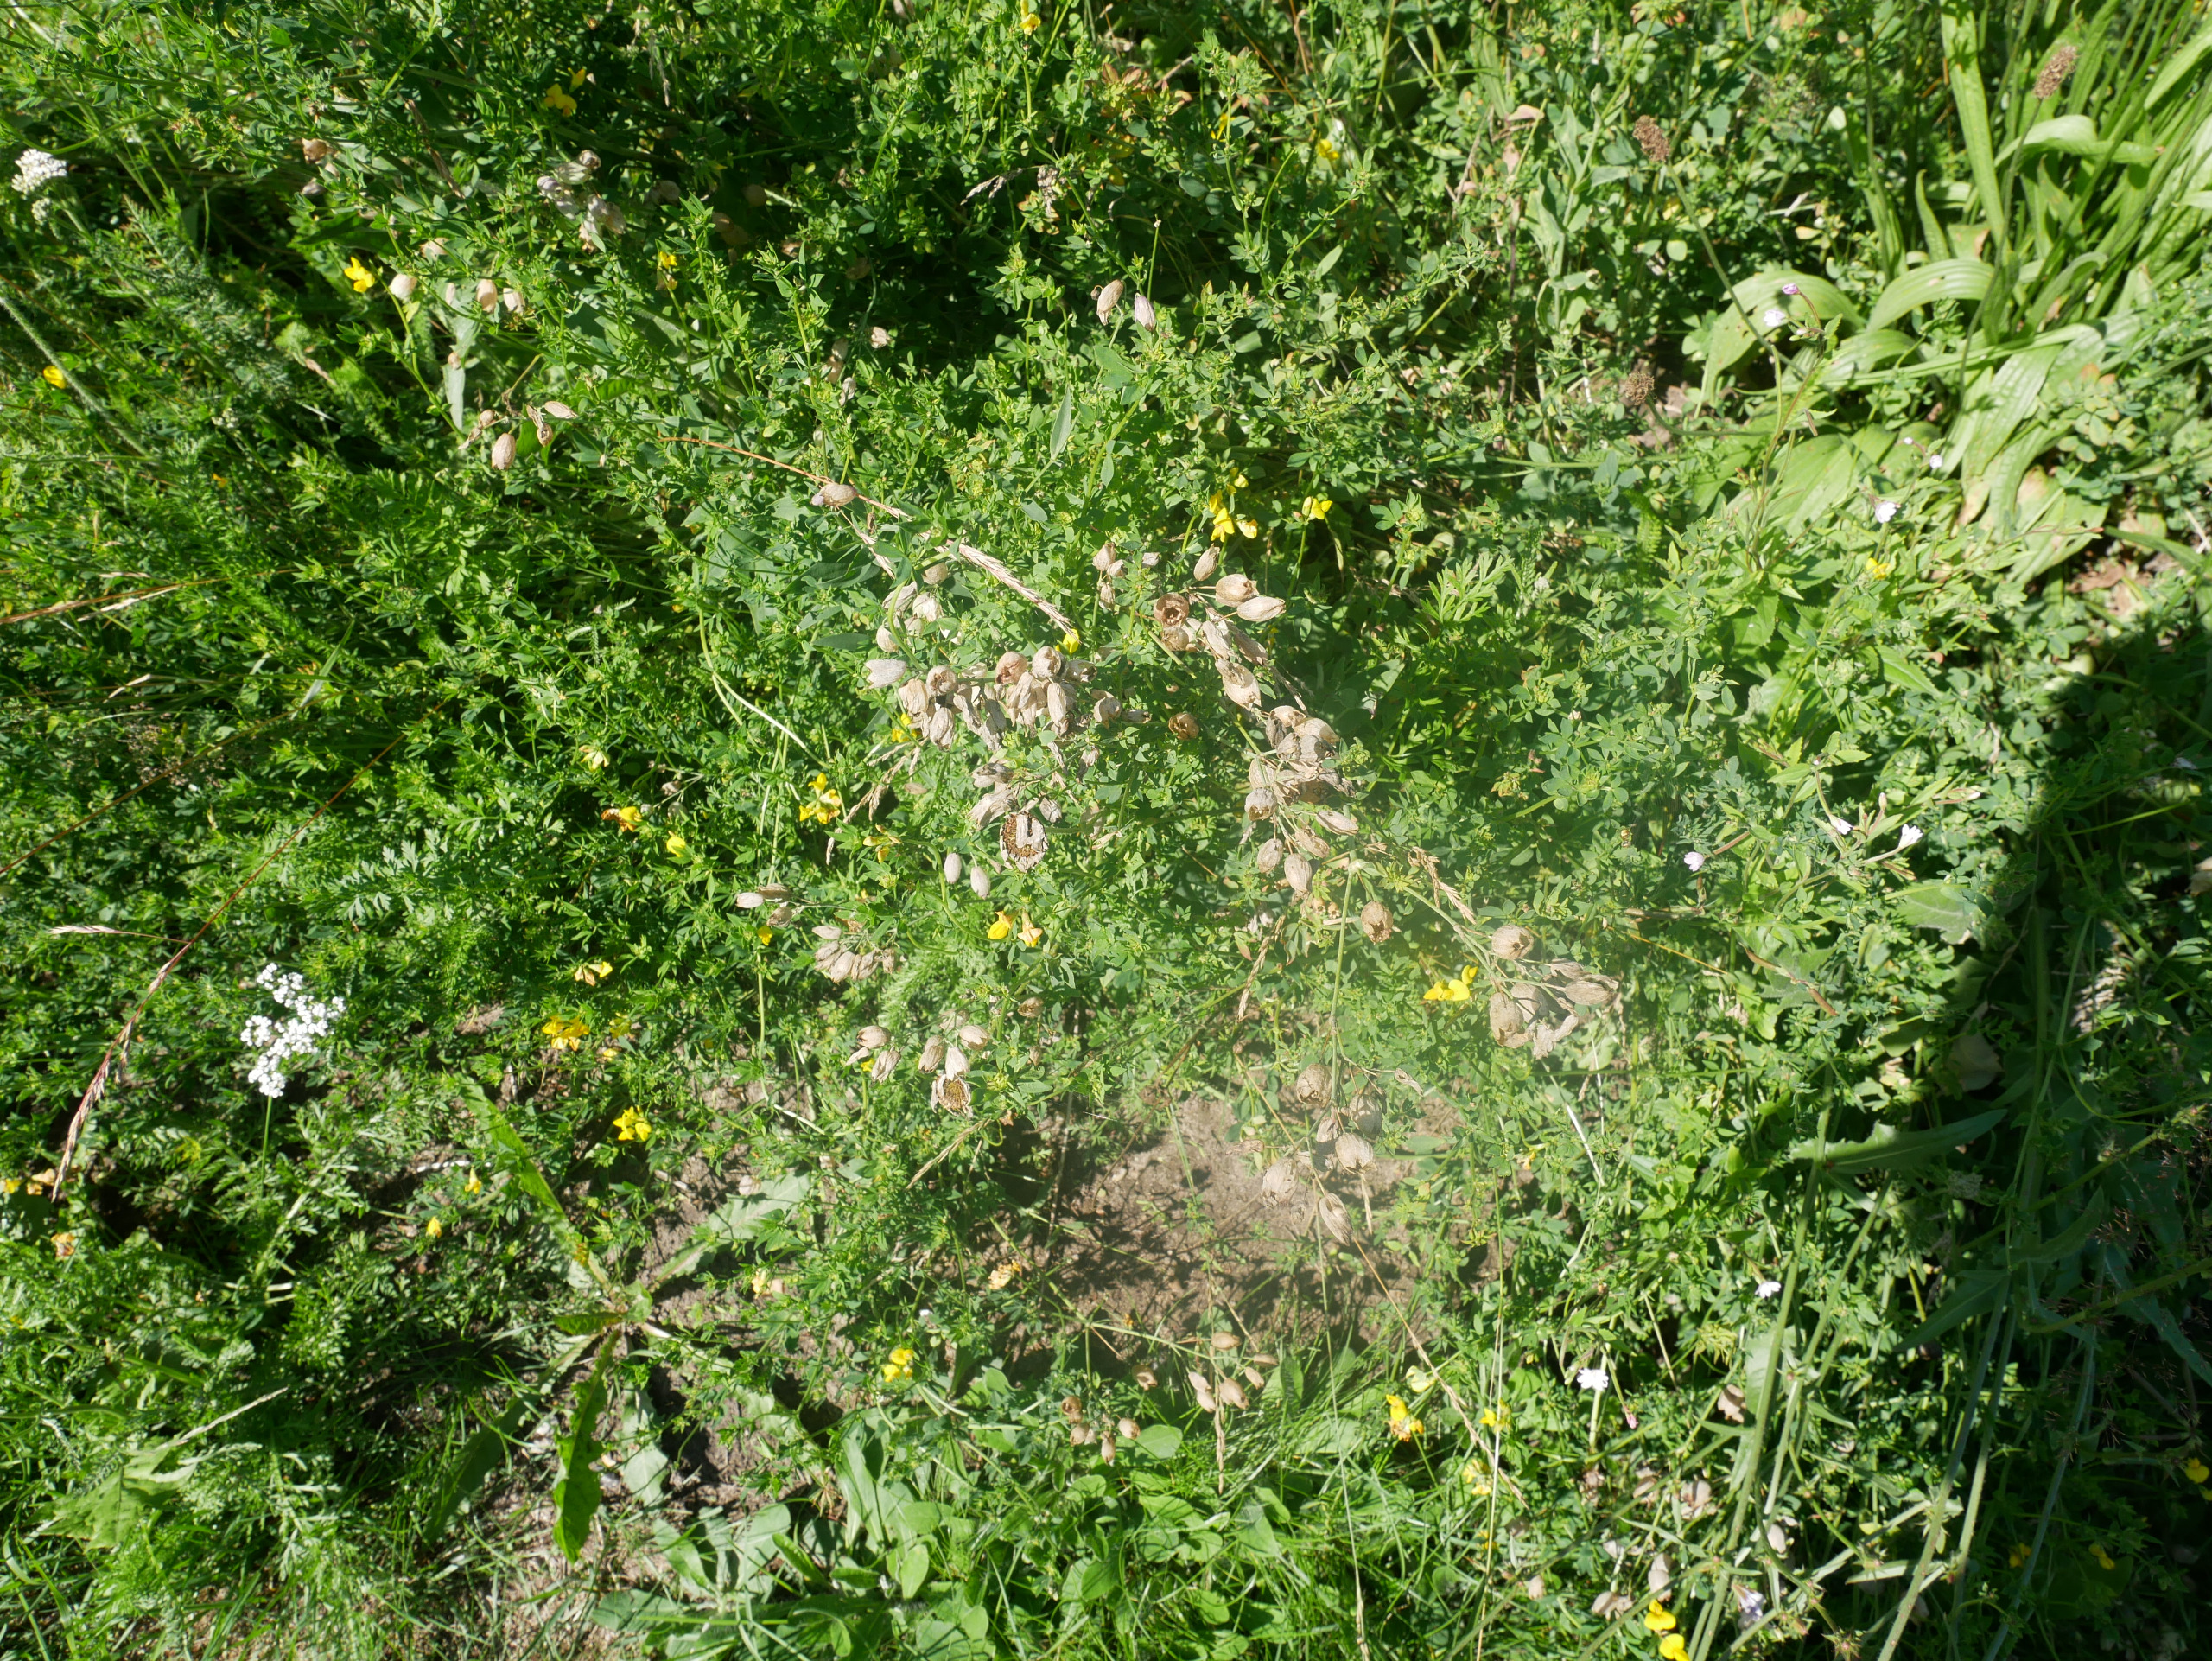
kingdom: Plantae
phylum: Tracheophyta
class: Magnoliopsida
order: Fabales
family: Fabaceae
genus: Lotus
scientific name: Lotus corniculatus
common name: Almindelig kællingetand
